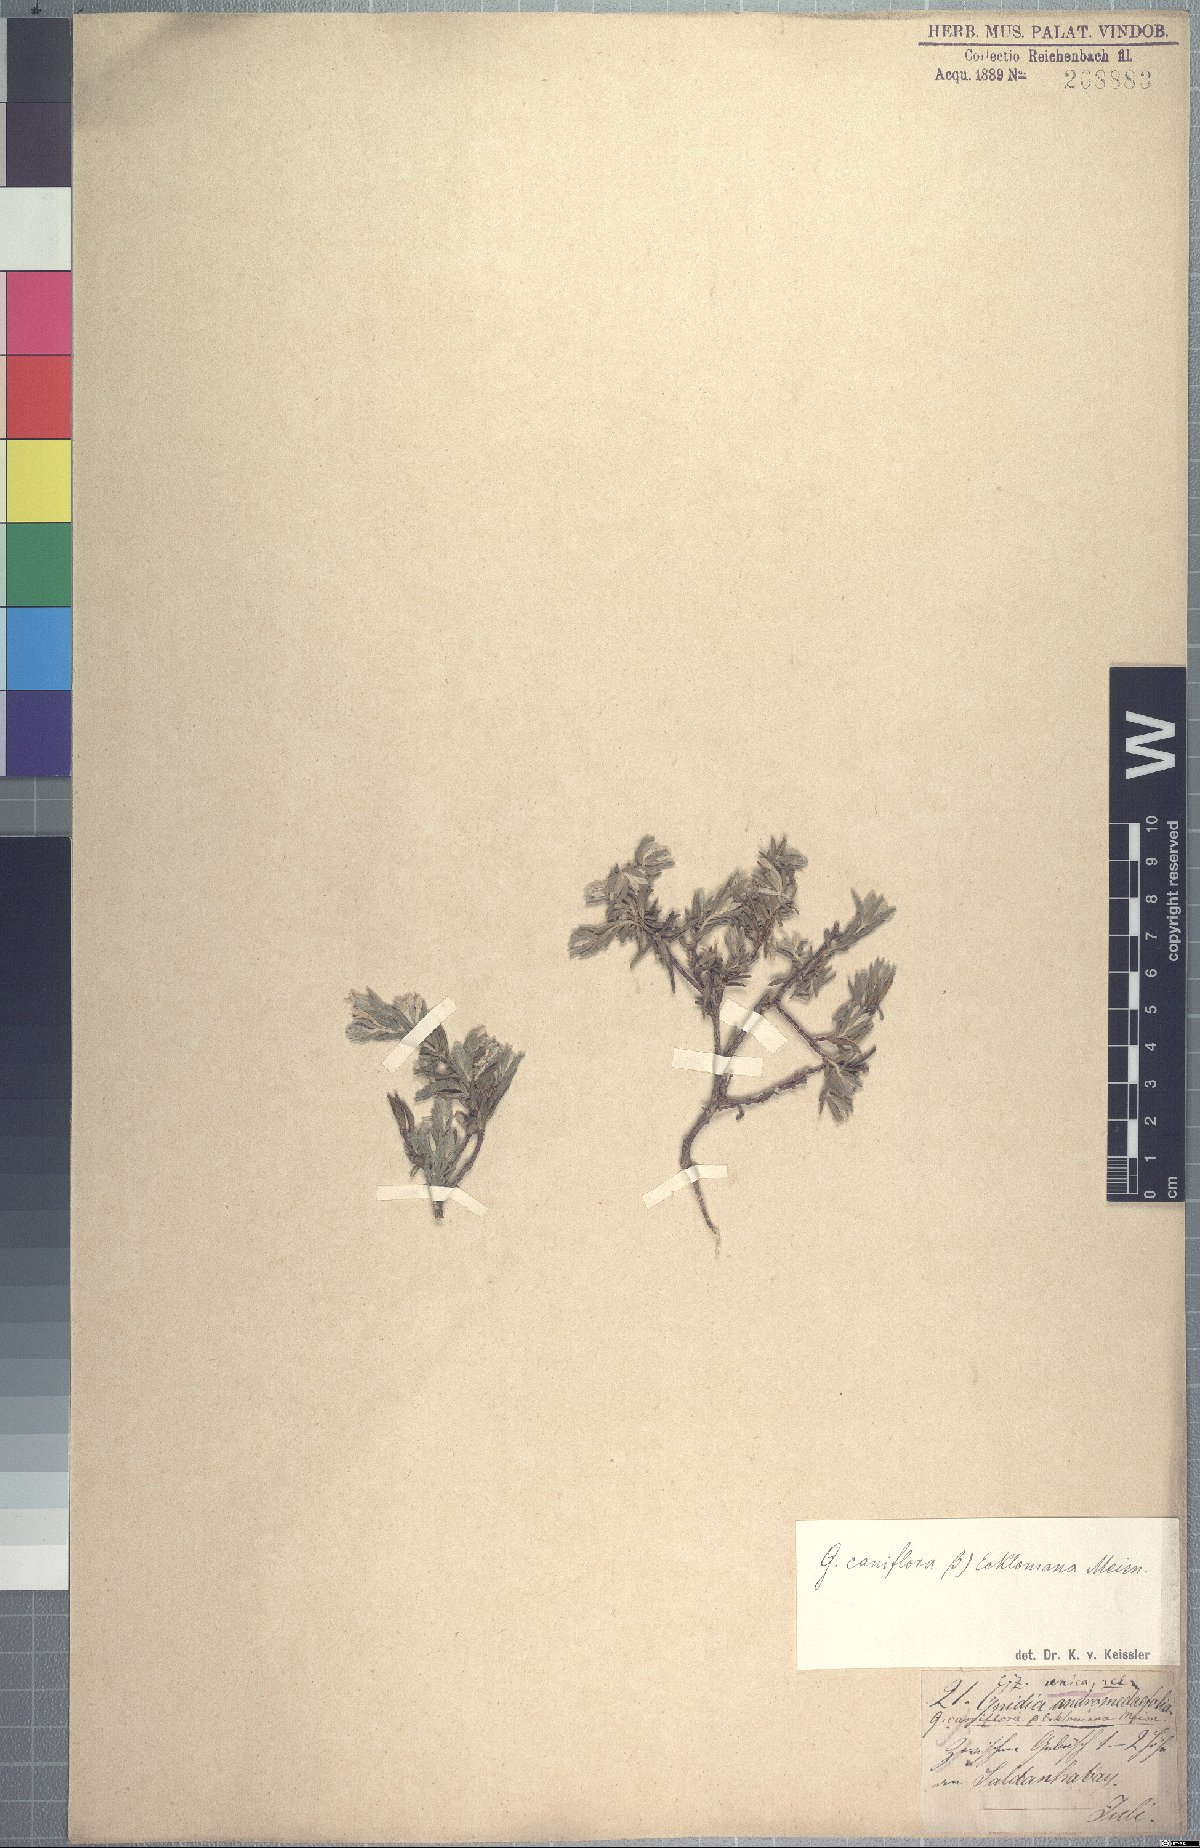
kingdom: Plantae
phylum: Tracheophyta
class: Magnoliopsida
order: Malvales
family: Thymelaeaceae
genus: Gnidia
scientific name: Gnidia caniflora
